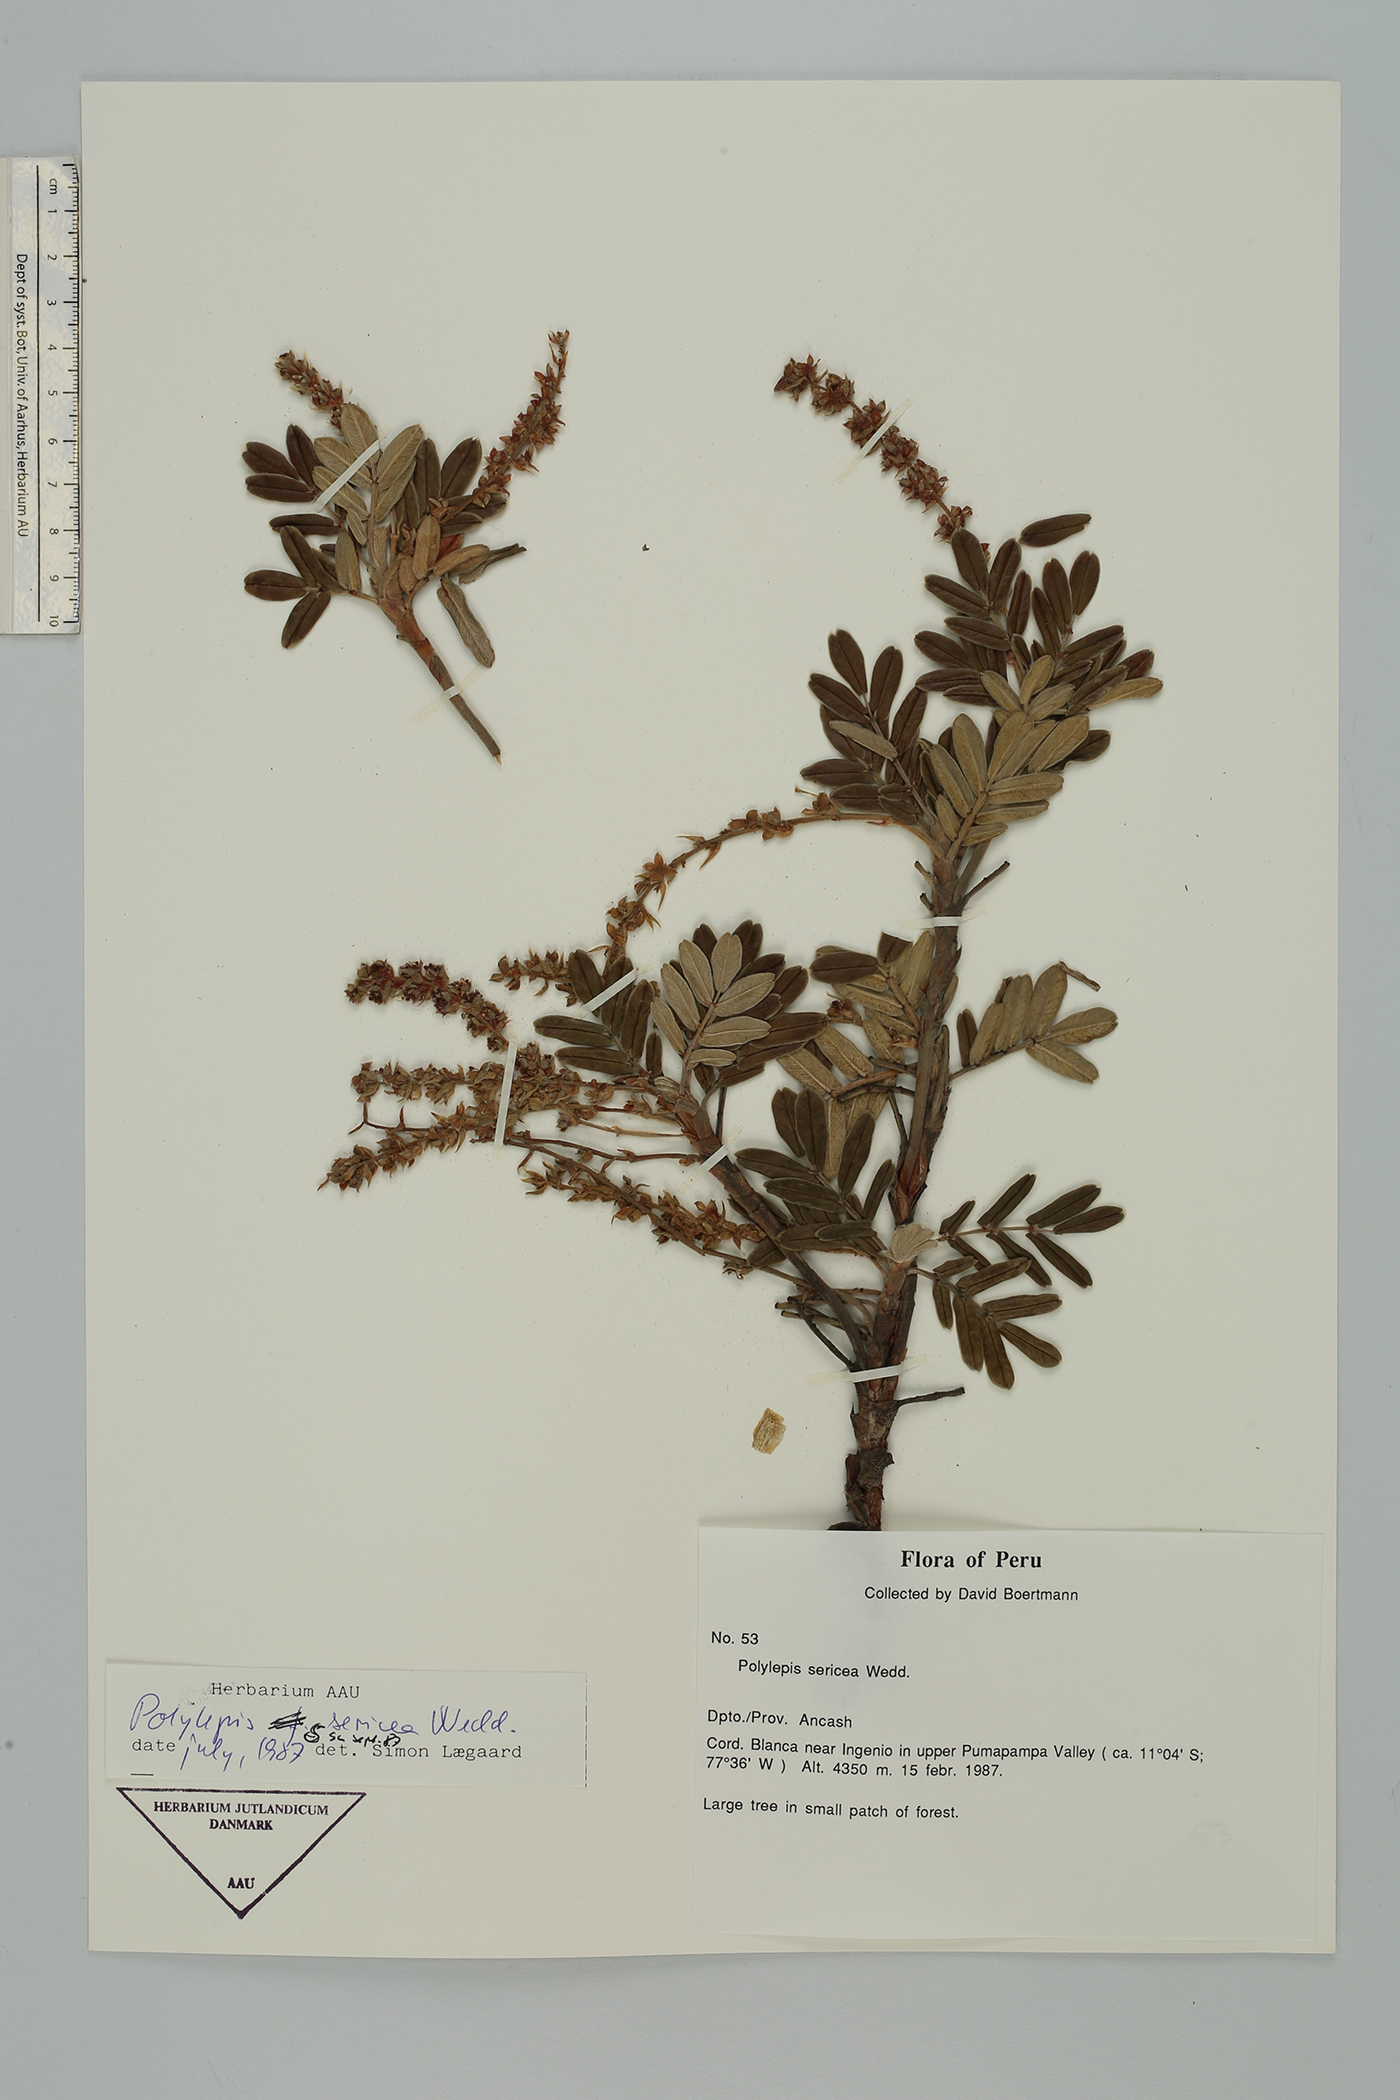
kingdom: Plantae
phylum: Tracheophyta
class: Magnoliopsida
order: Rosales
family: Rosaceae
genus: Polylepis
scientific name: Polylepis sericea
